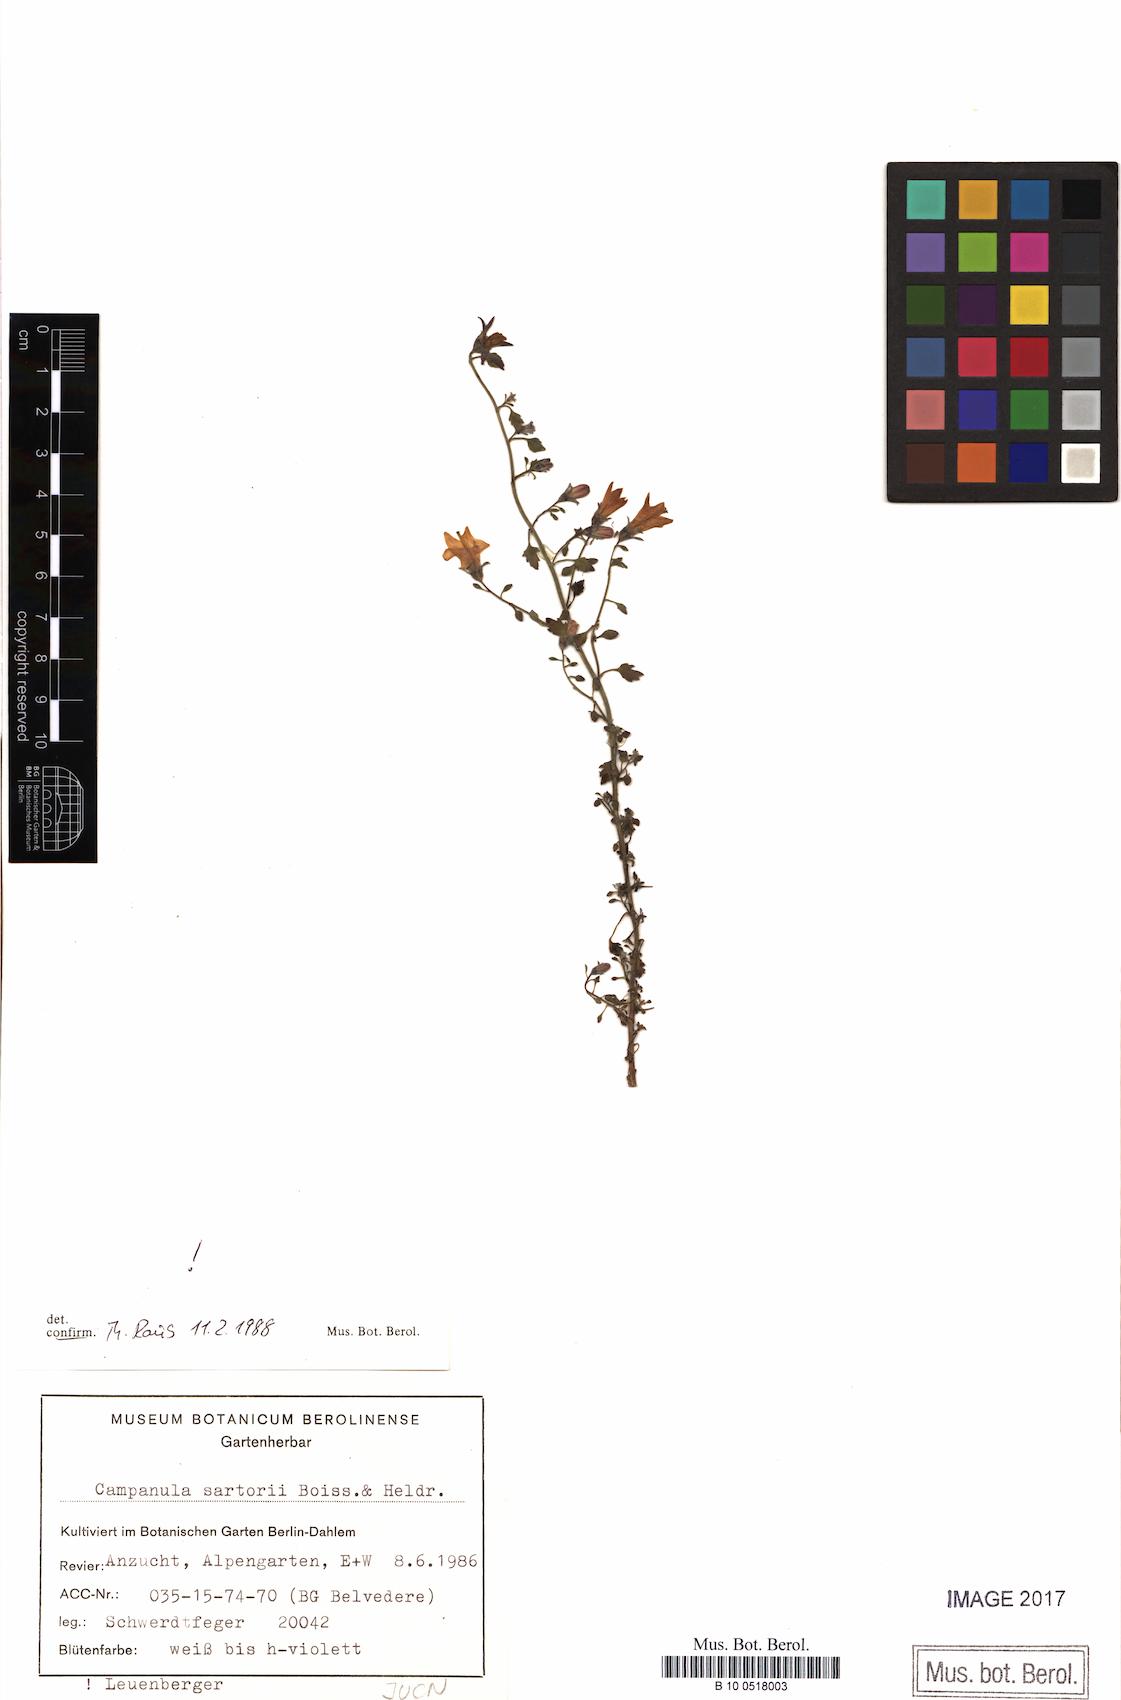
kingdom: Plantae
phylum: Tracheophyta
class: Magnoliopsida
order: Boraginales
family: Boraginaceae
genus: Myosotis
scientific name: Myosotis arvensis
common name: Field forget-me-not
